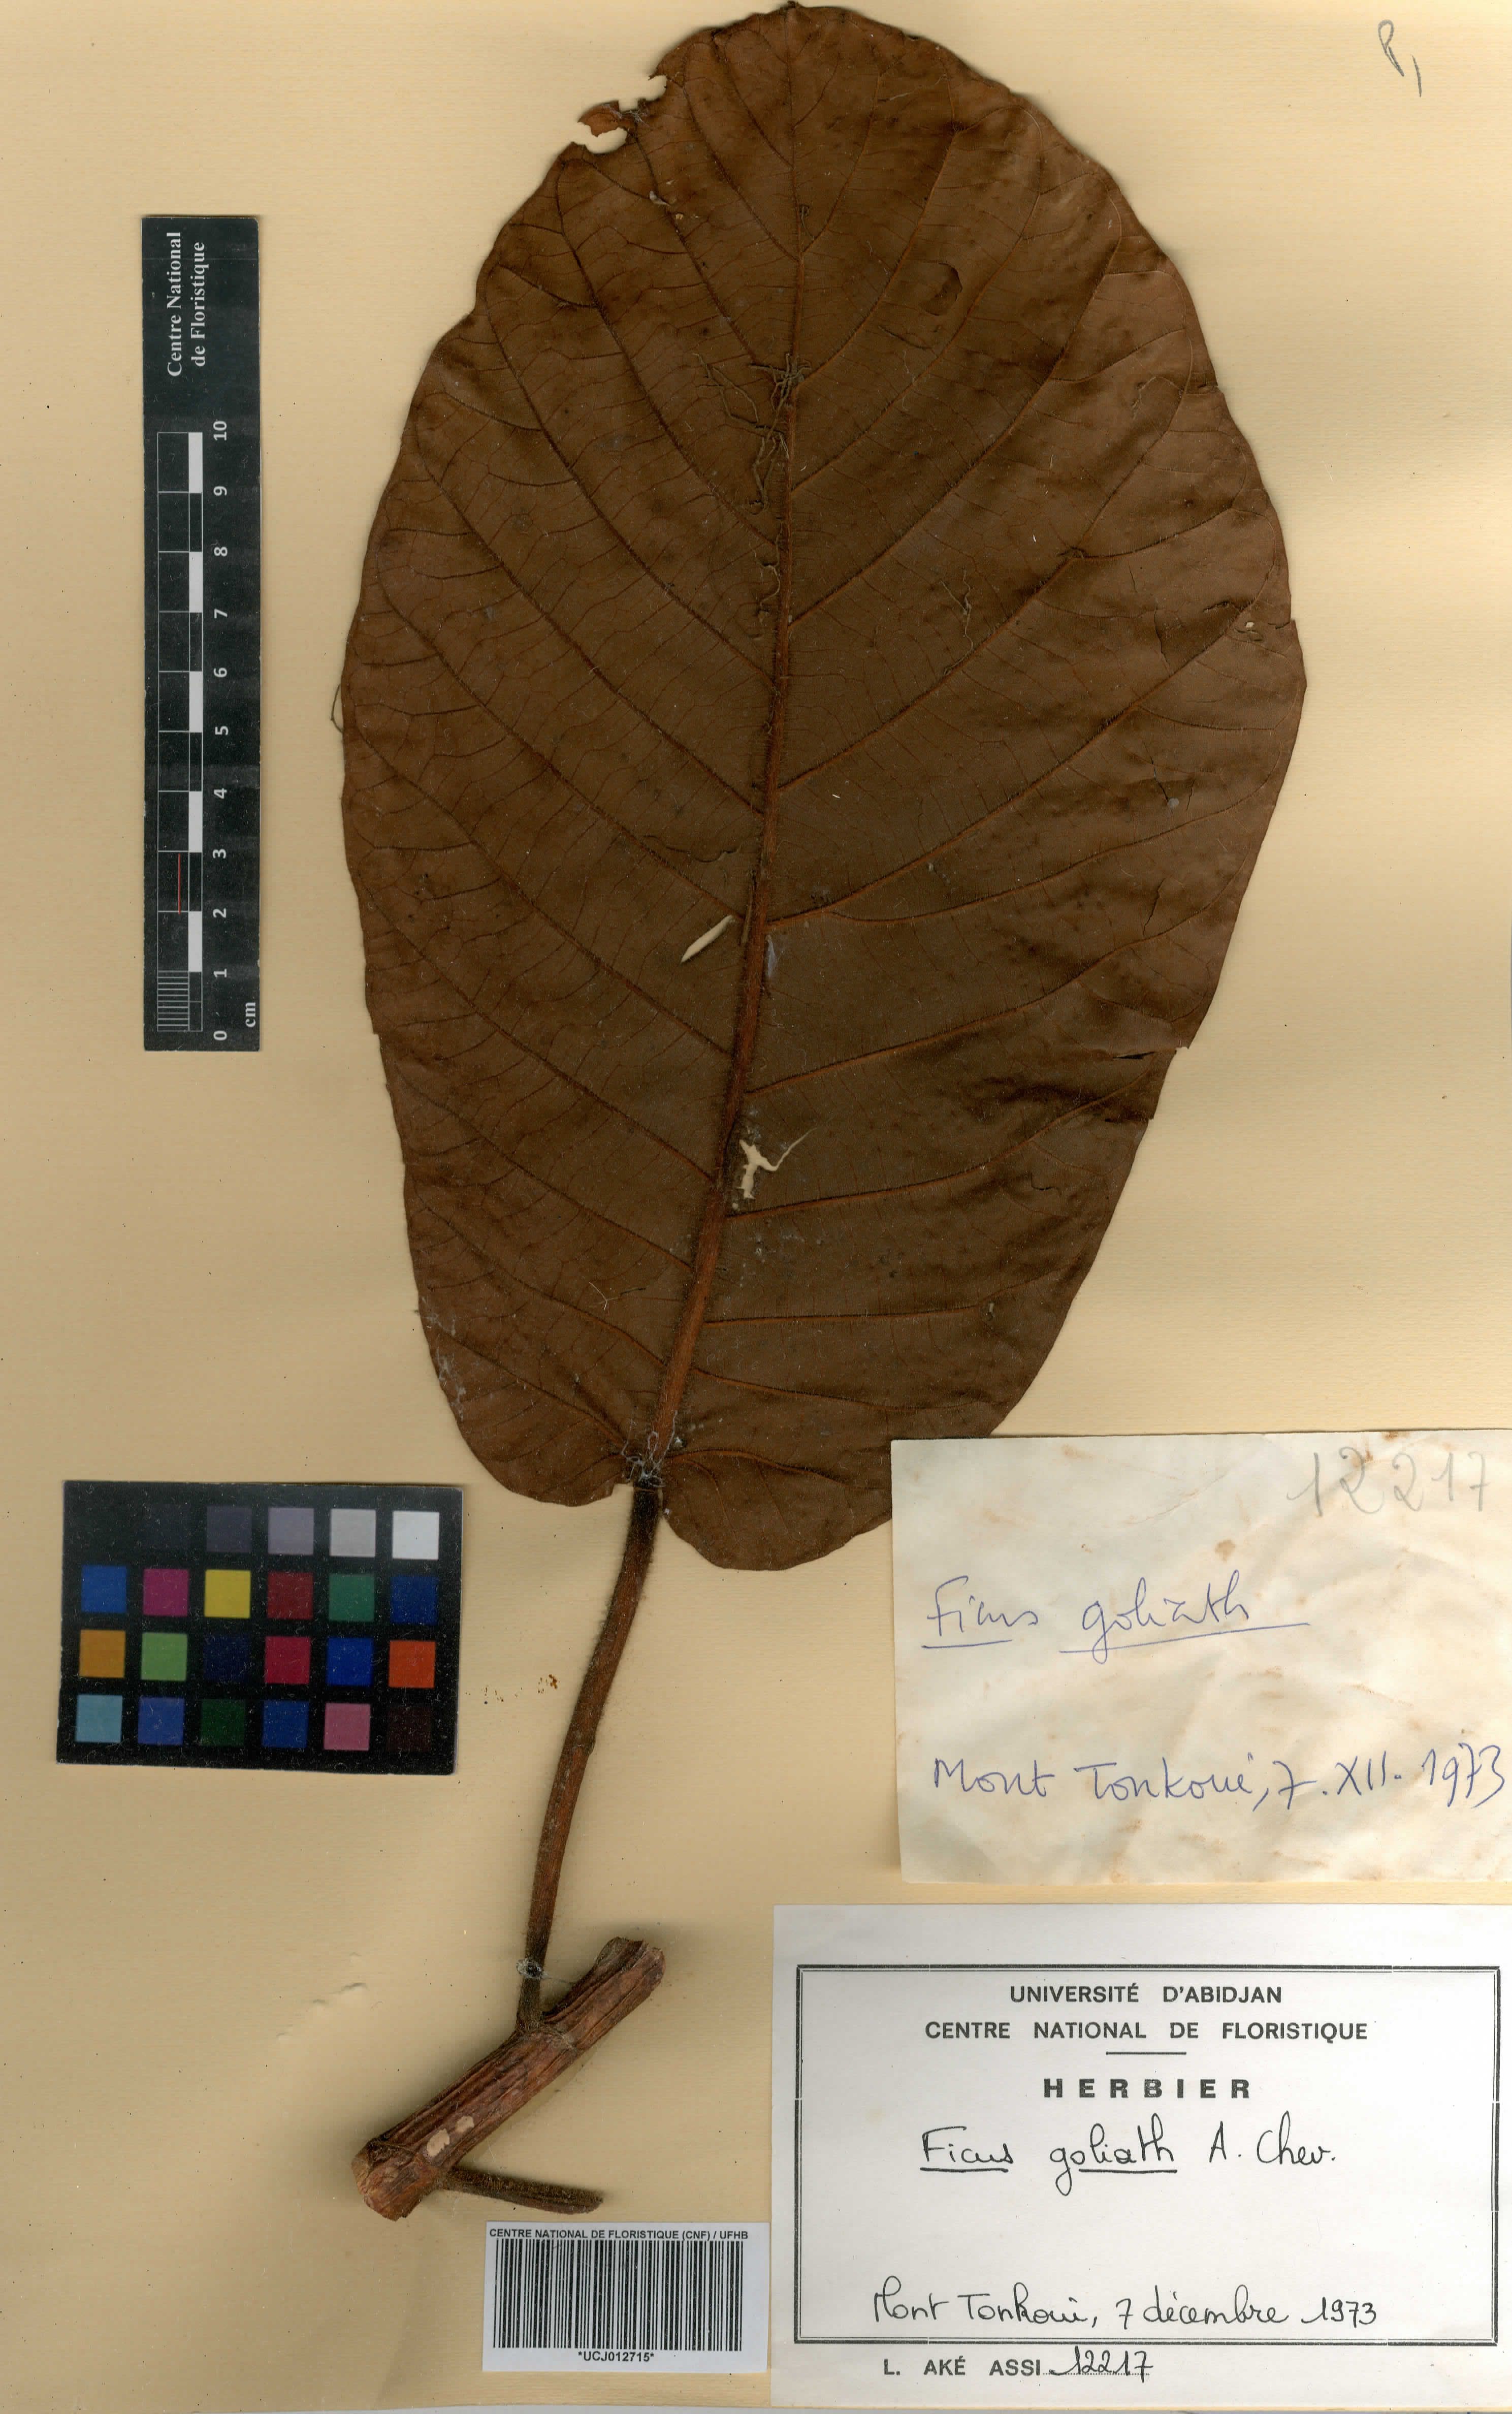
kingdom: Plantae
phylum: Tracheophyta
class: Magnoliopsida
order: Rosales
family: Moraceae
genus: Ficus
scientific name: Ficus recurvata
